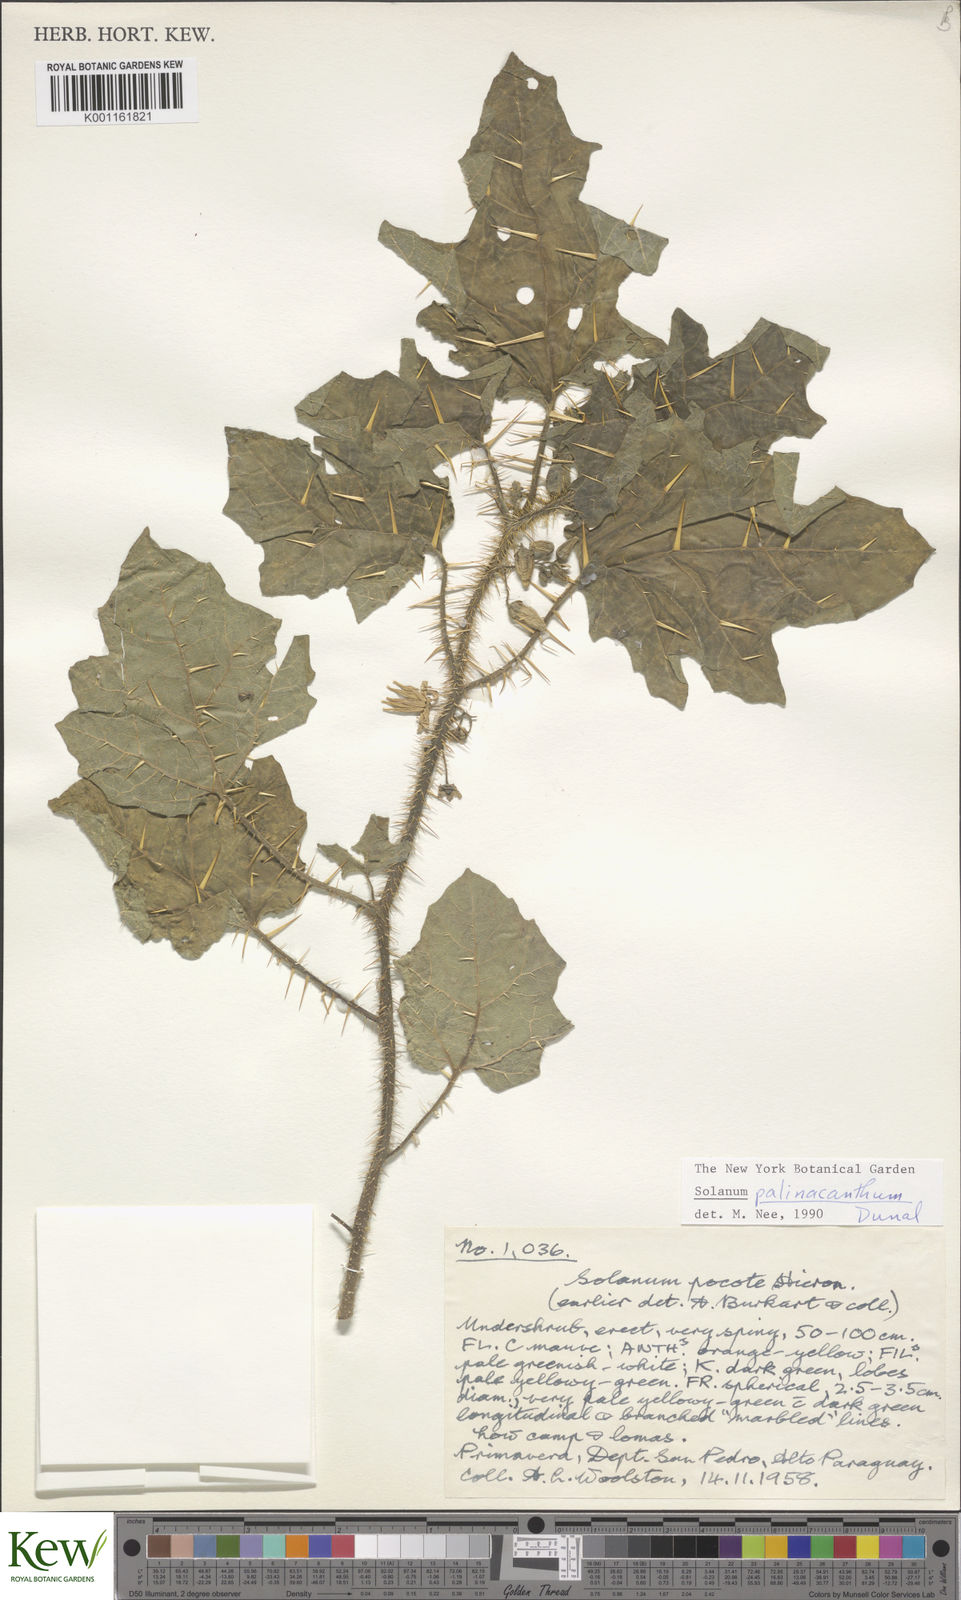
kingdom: Plantae
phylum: Tracheophyta
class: Magnoliopsida
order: Solanales
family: Solanaceae
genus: Solanum
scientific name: Solanum palinacanthum
